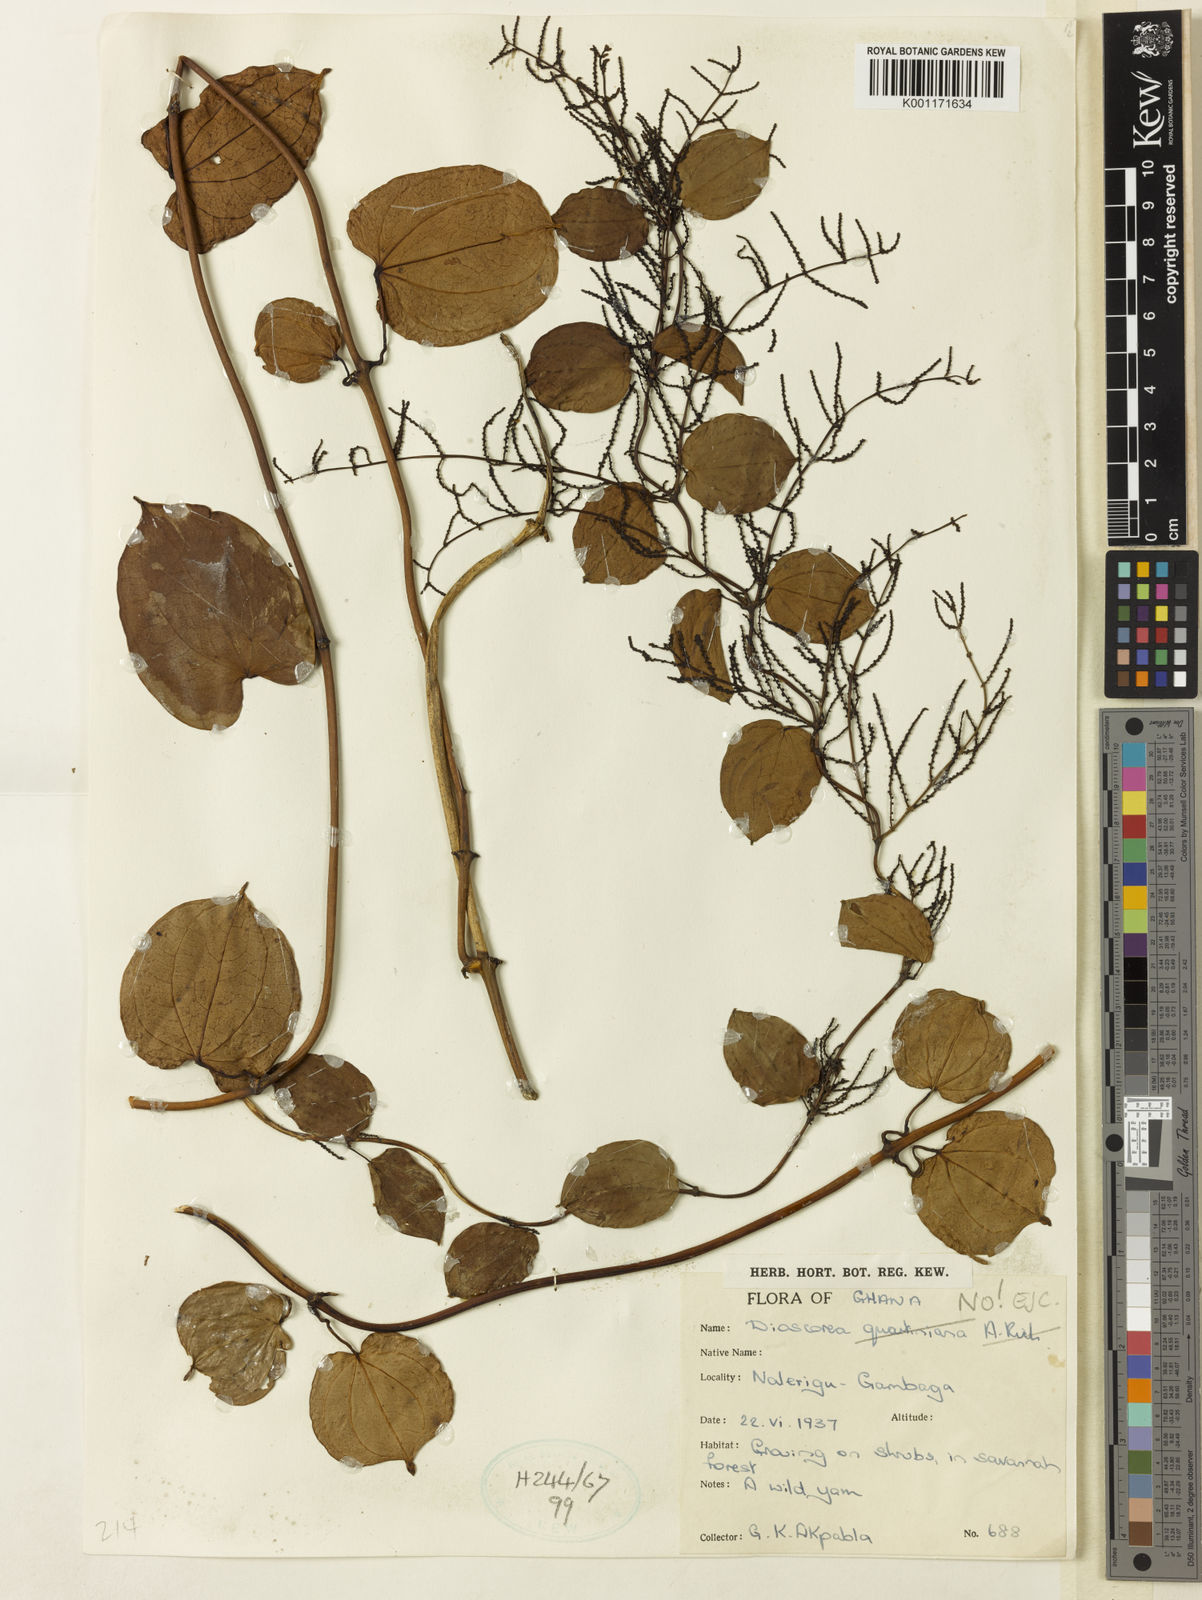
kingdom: Plantae
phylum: Tracheophyta
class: Liliopsida
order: Dioscoreales
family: Dioscoreaceae
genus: Dioscorea
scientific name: Dioscorea
